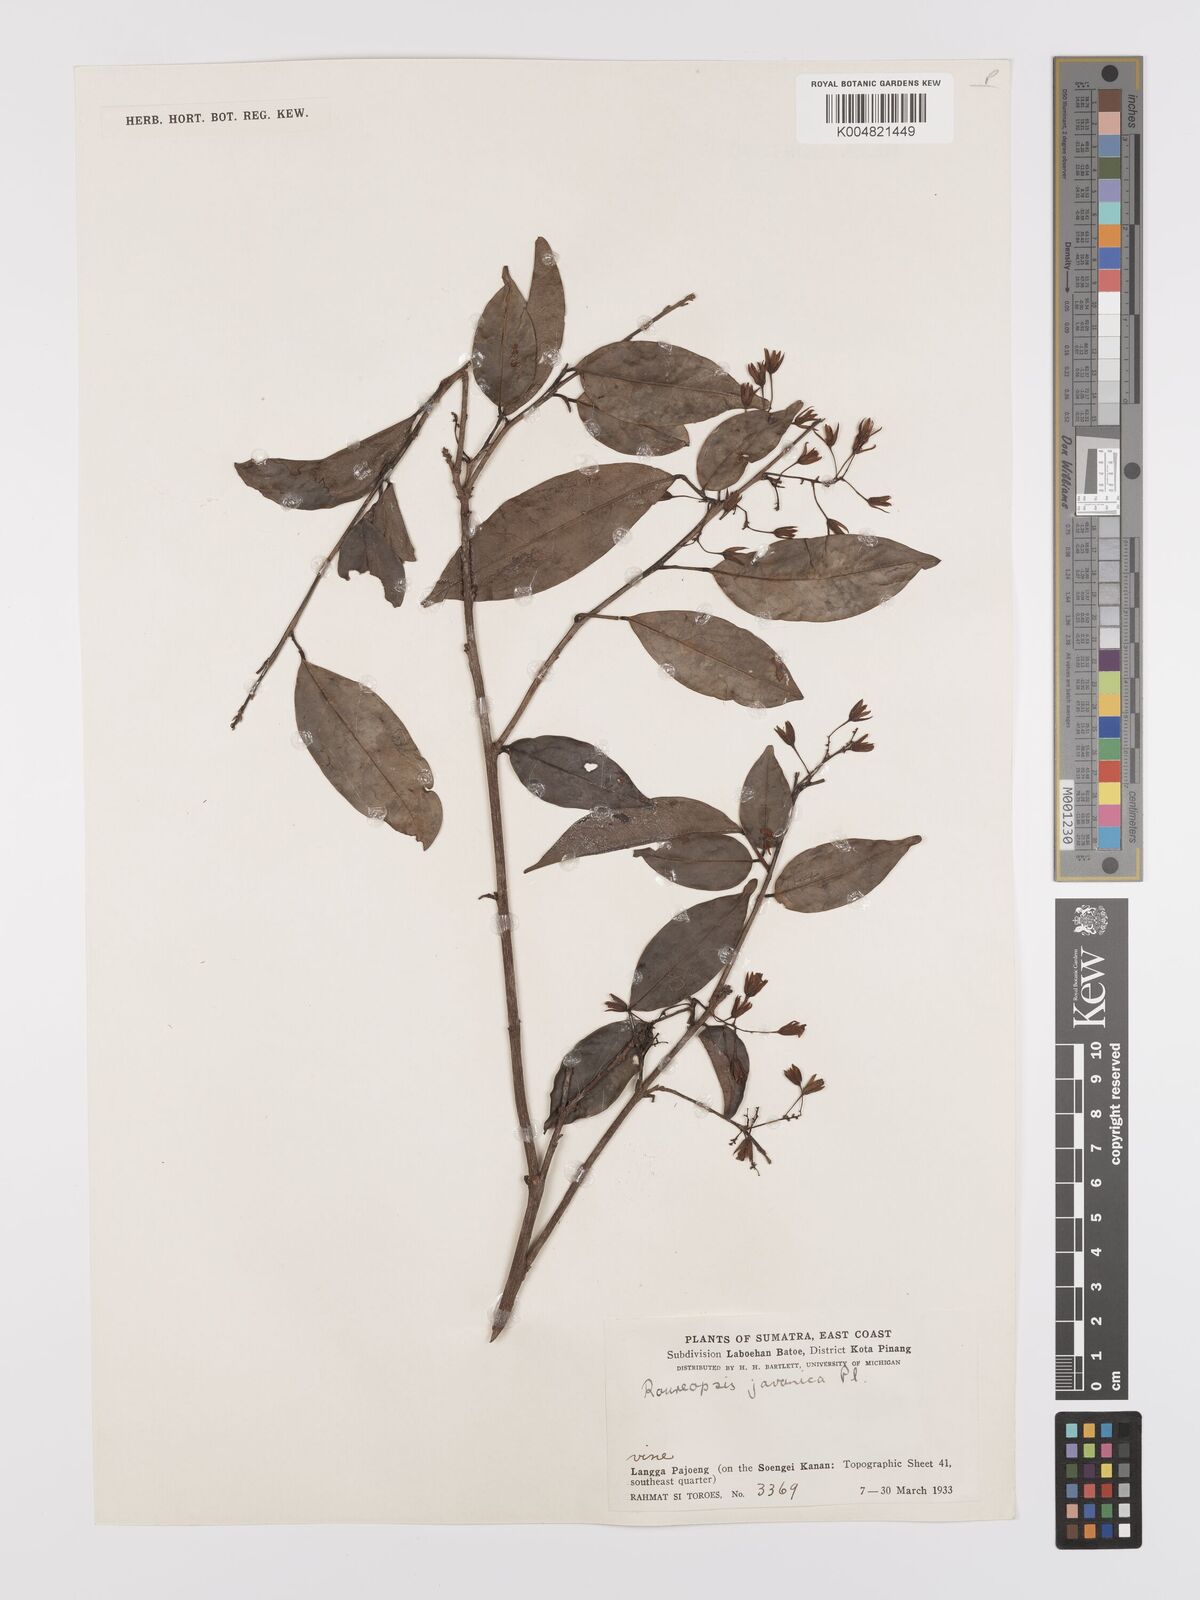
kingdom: Plantae
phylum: Tracheophyta
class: Magnoliopsida
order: Oxalidales
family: Connaraceae
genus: Rourea
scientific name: Rourea emarginata
